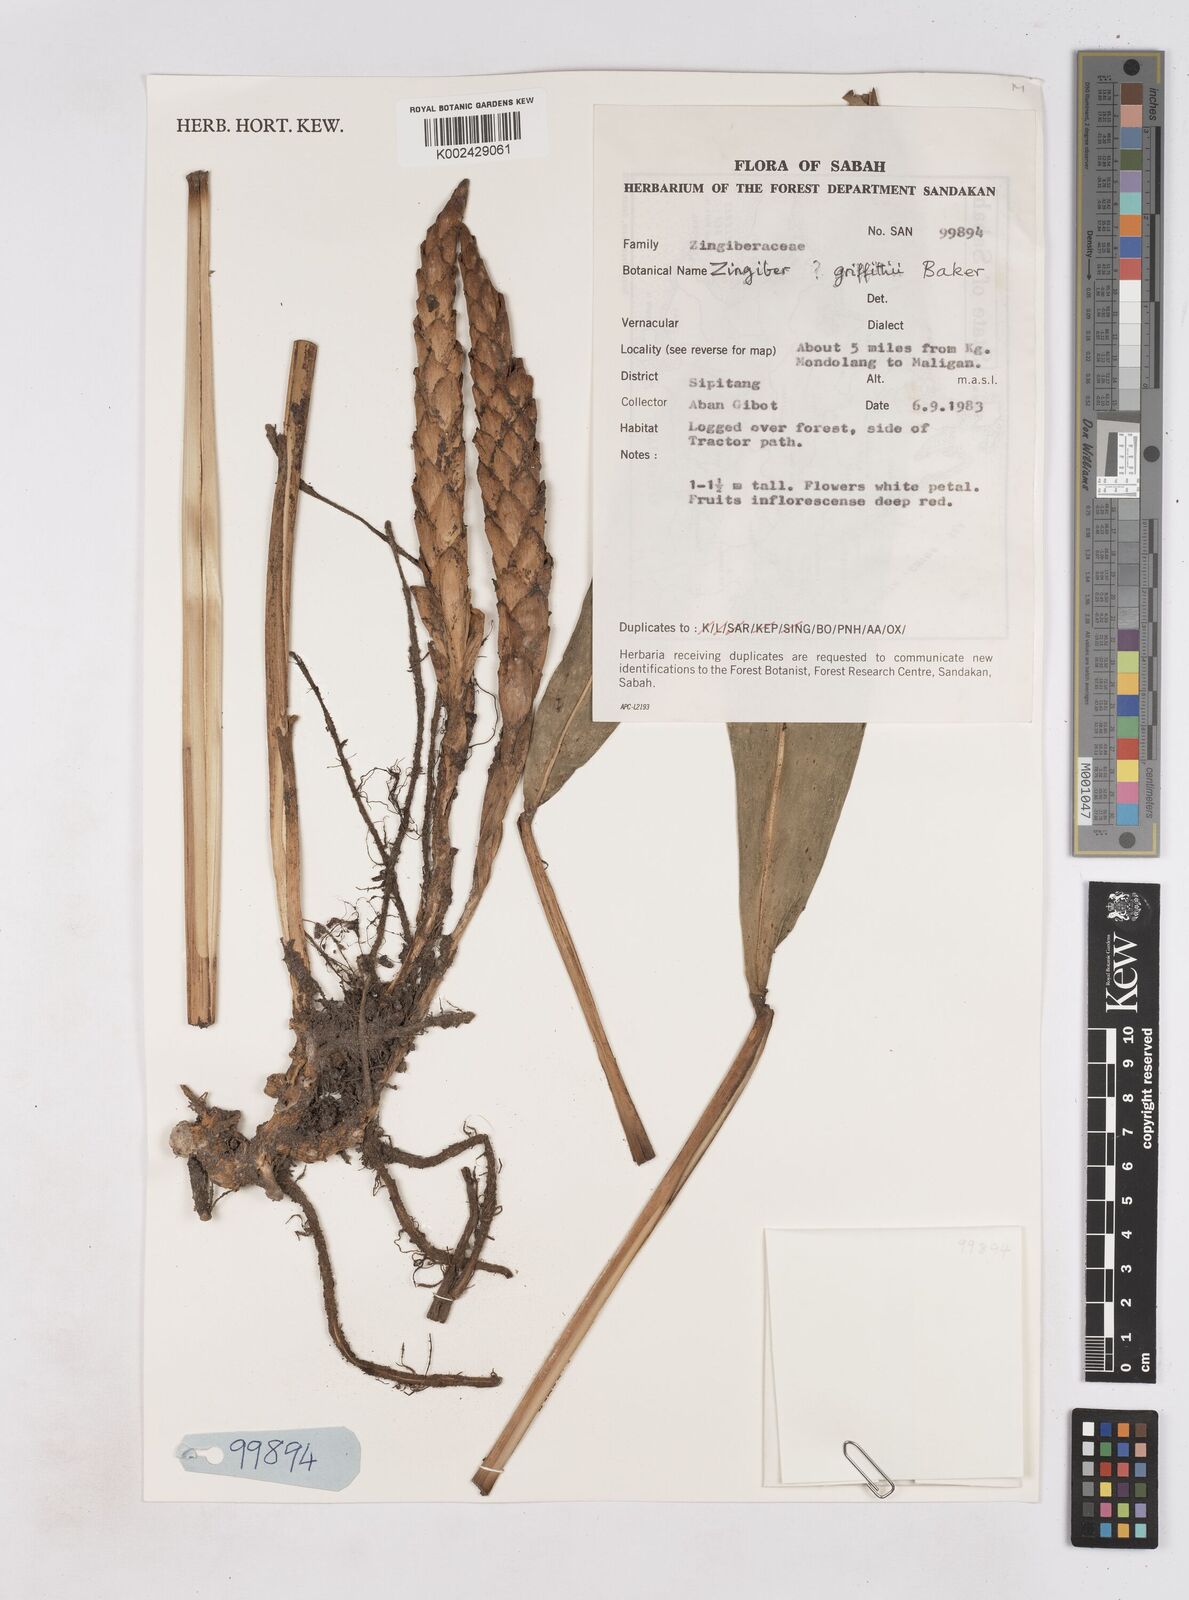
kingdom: Plantae
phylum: Tracheophyta
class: Liliopsida
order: Zingiberales
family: Zingiberaceae
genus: Zingiber
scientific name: Zingiber griffithii
